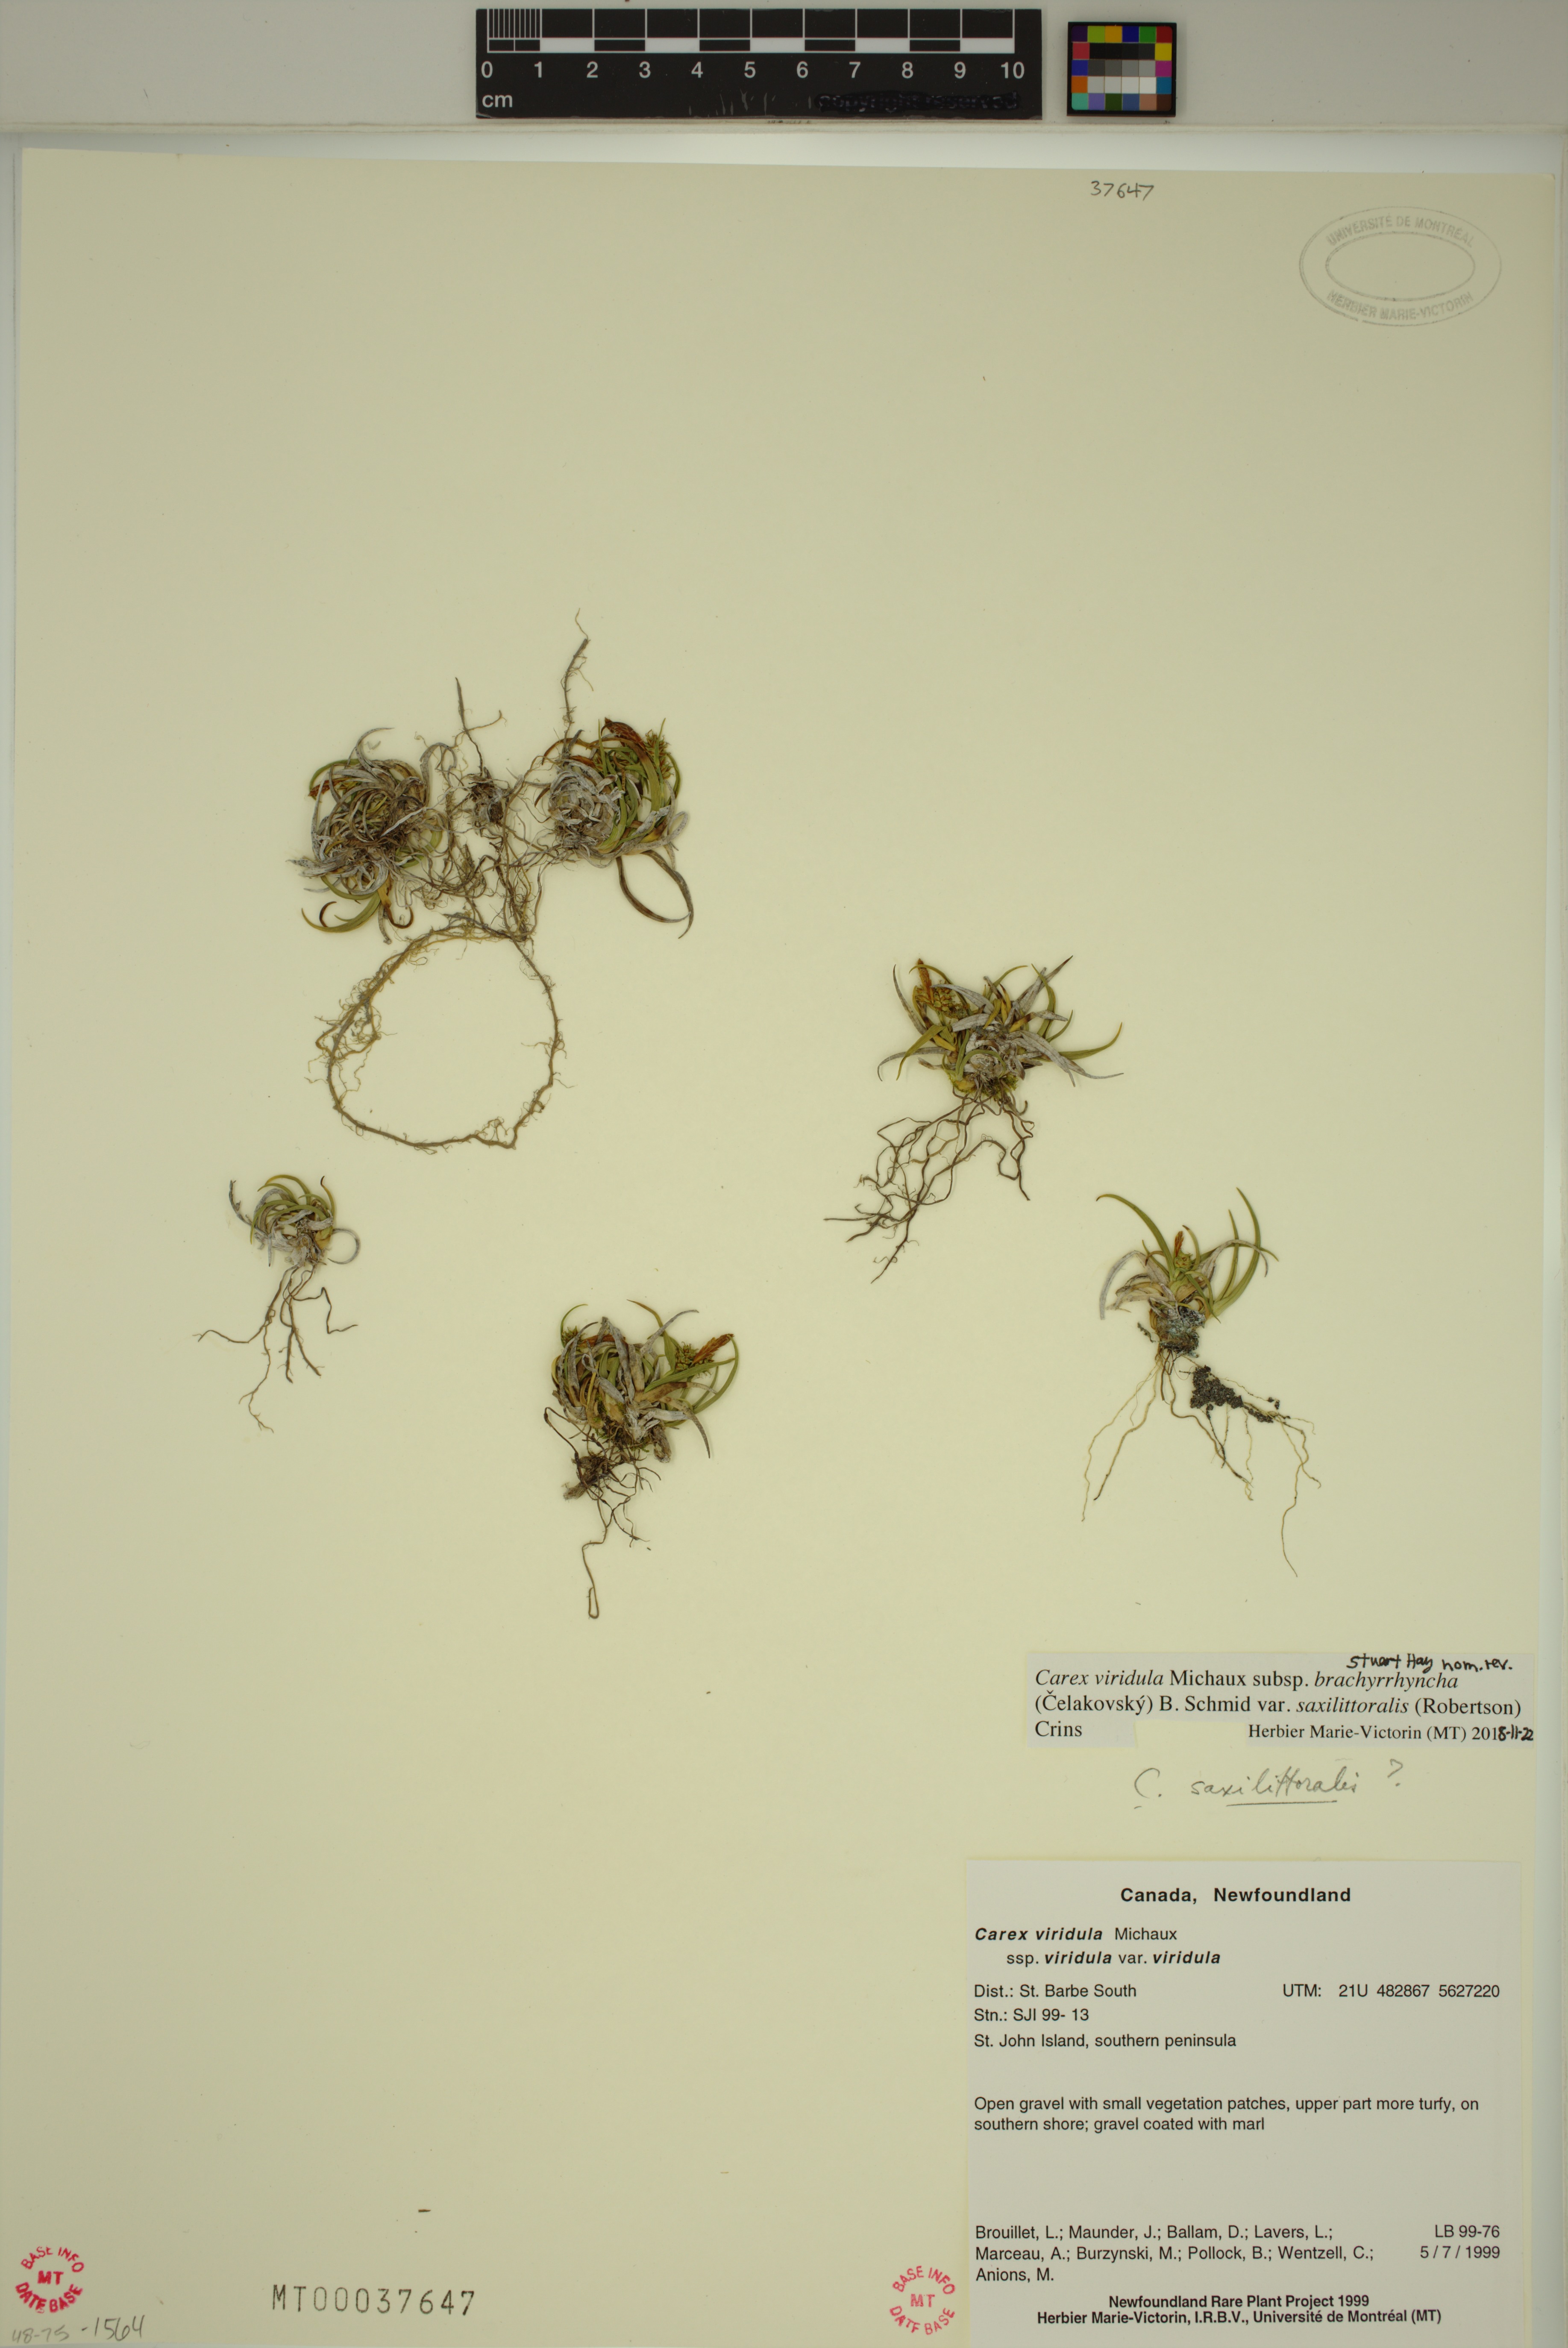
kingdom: Plantae
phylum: Tracheophyta
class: Liliopsida
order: Poales
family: Cyperaceae
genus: Carex
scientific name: Carex saxilittoralis
